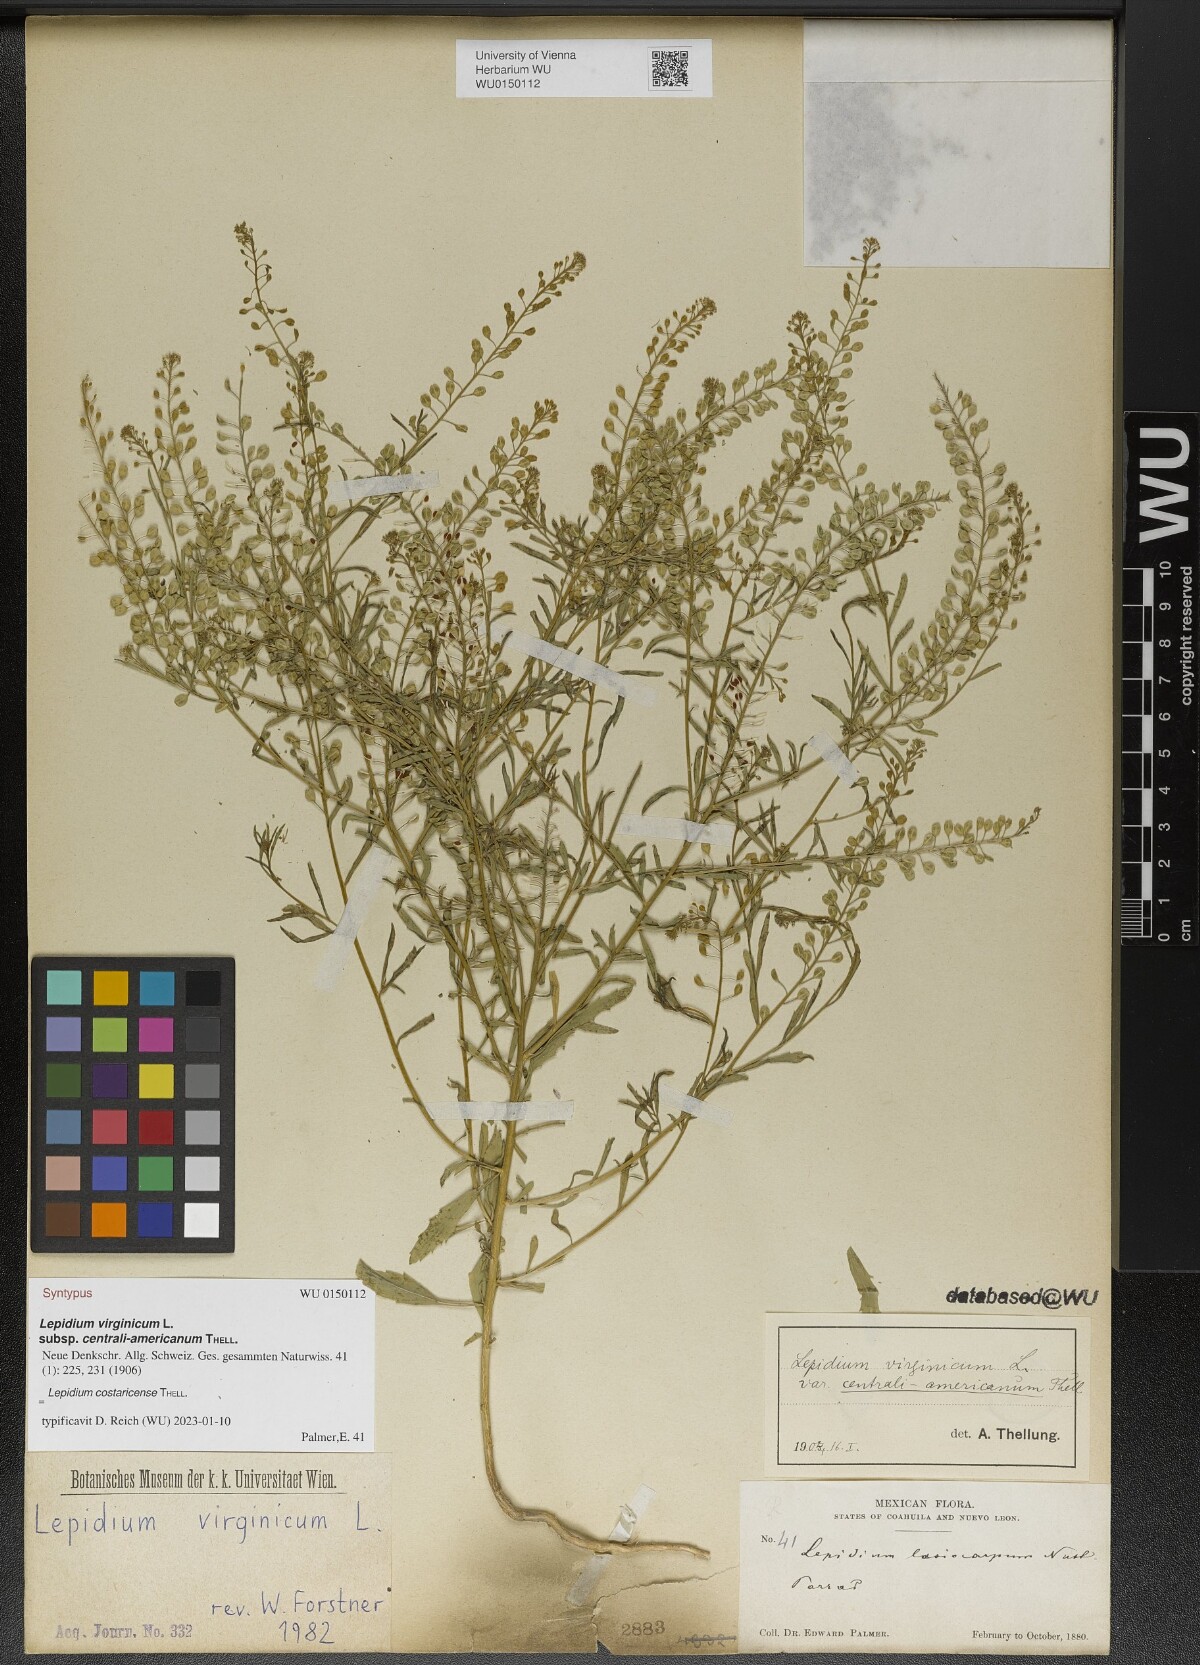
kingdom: Plantae
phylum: Tracheophyta
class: Magnoliopsida
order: Brassicales
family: Brassicaceae
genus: Lepidium
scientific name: Lepidium costaricense
